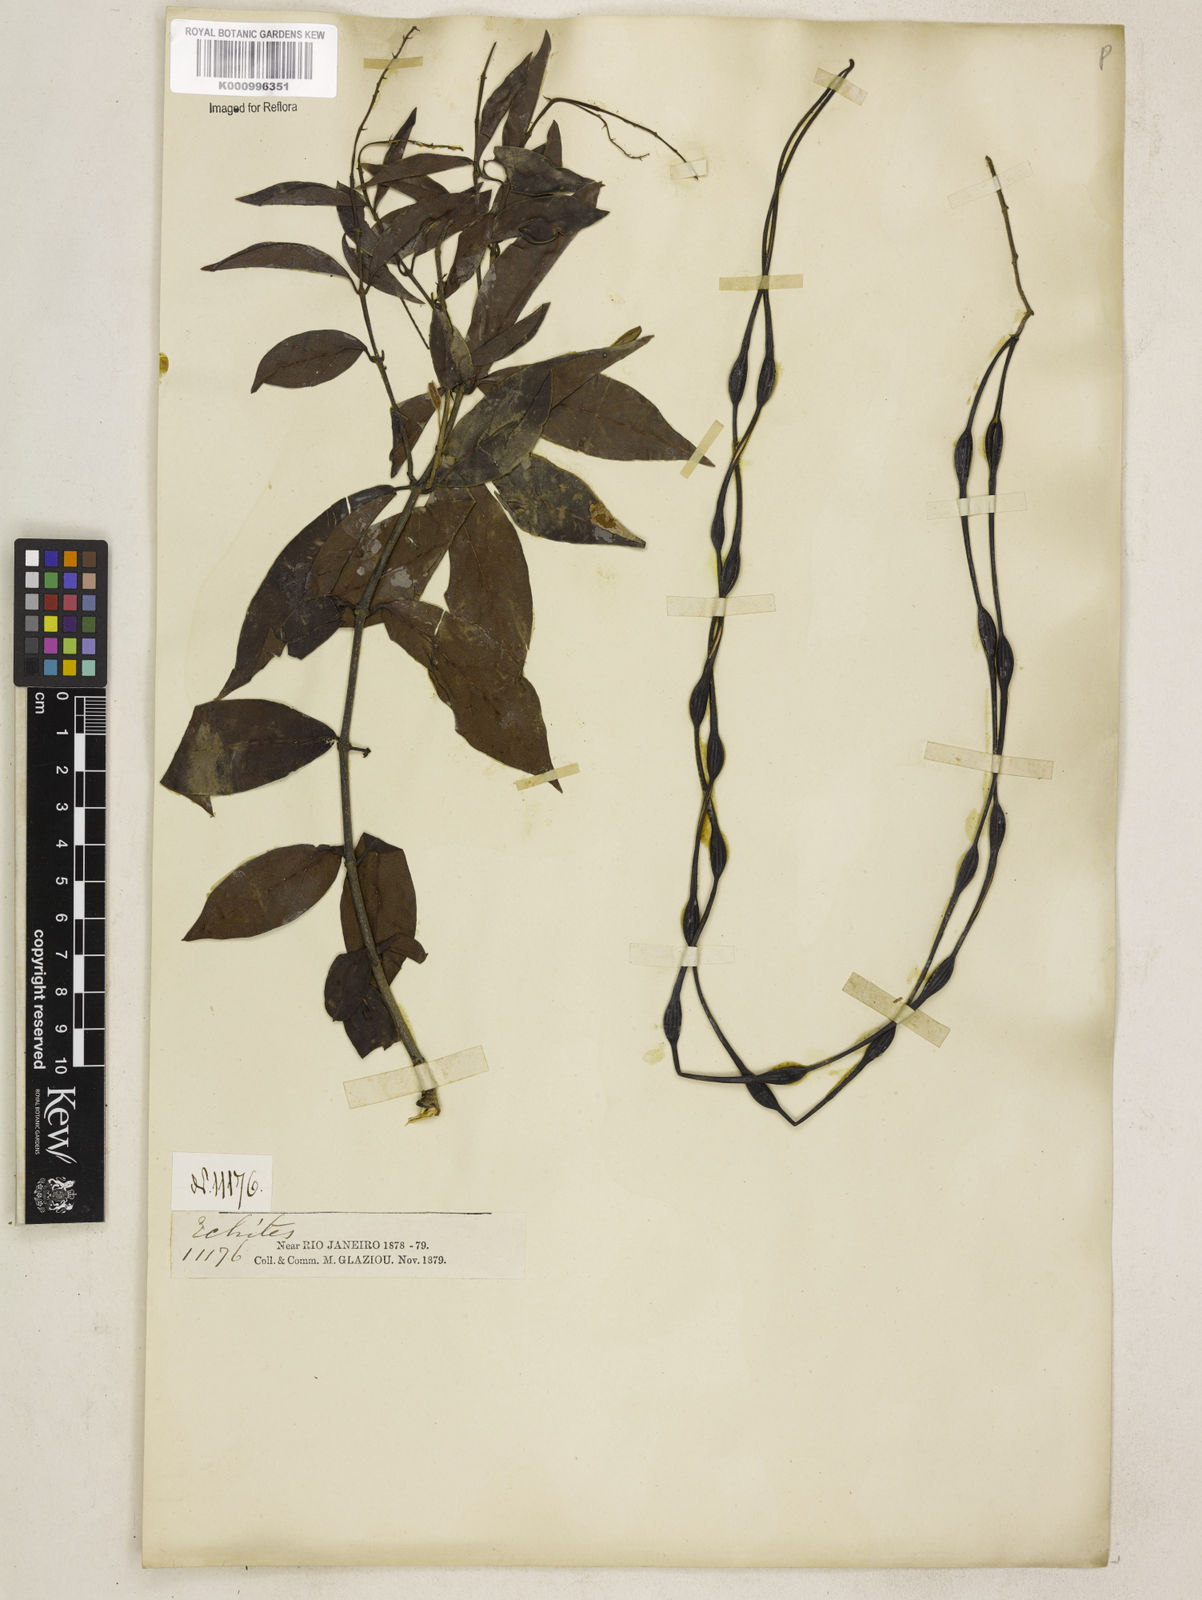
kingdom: Plantae
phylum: Tracheophyta
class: Magnoliopsida
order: Gentianales
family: Apocynaceae
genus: Forsteronia
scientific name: Forsteronia leptocarpa
